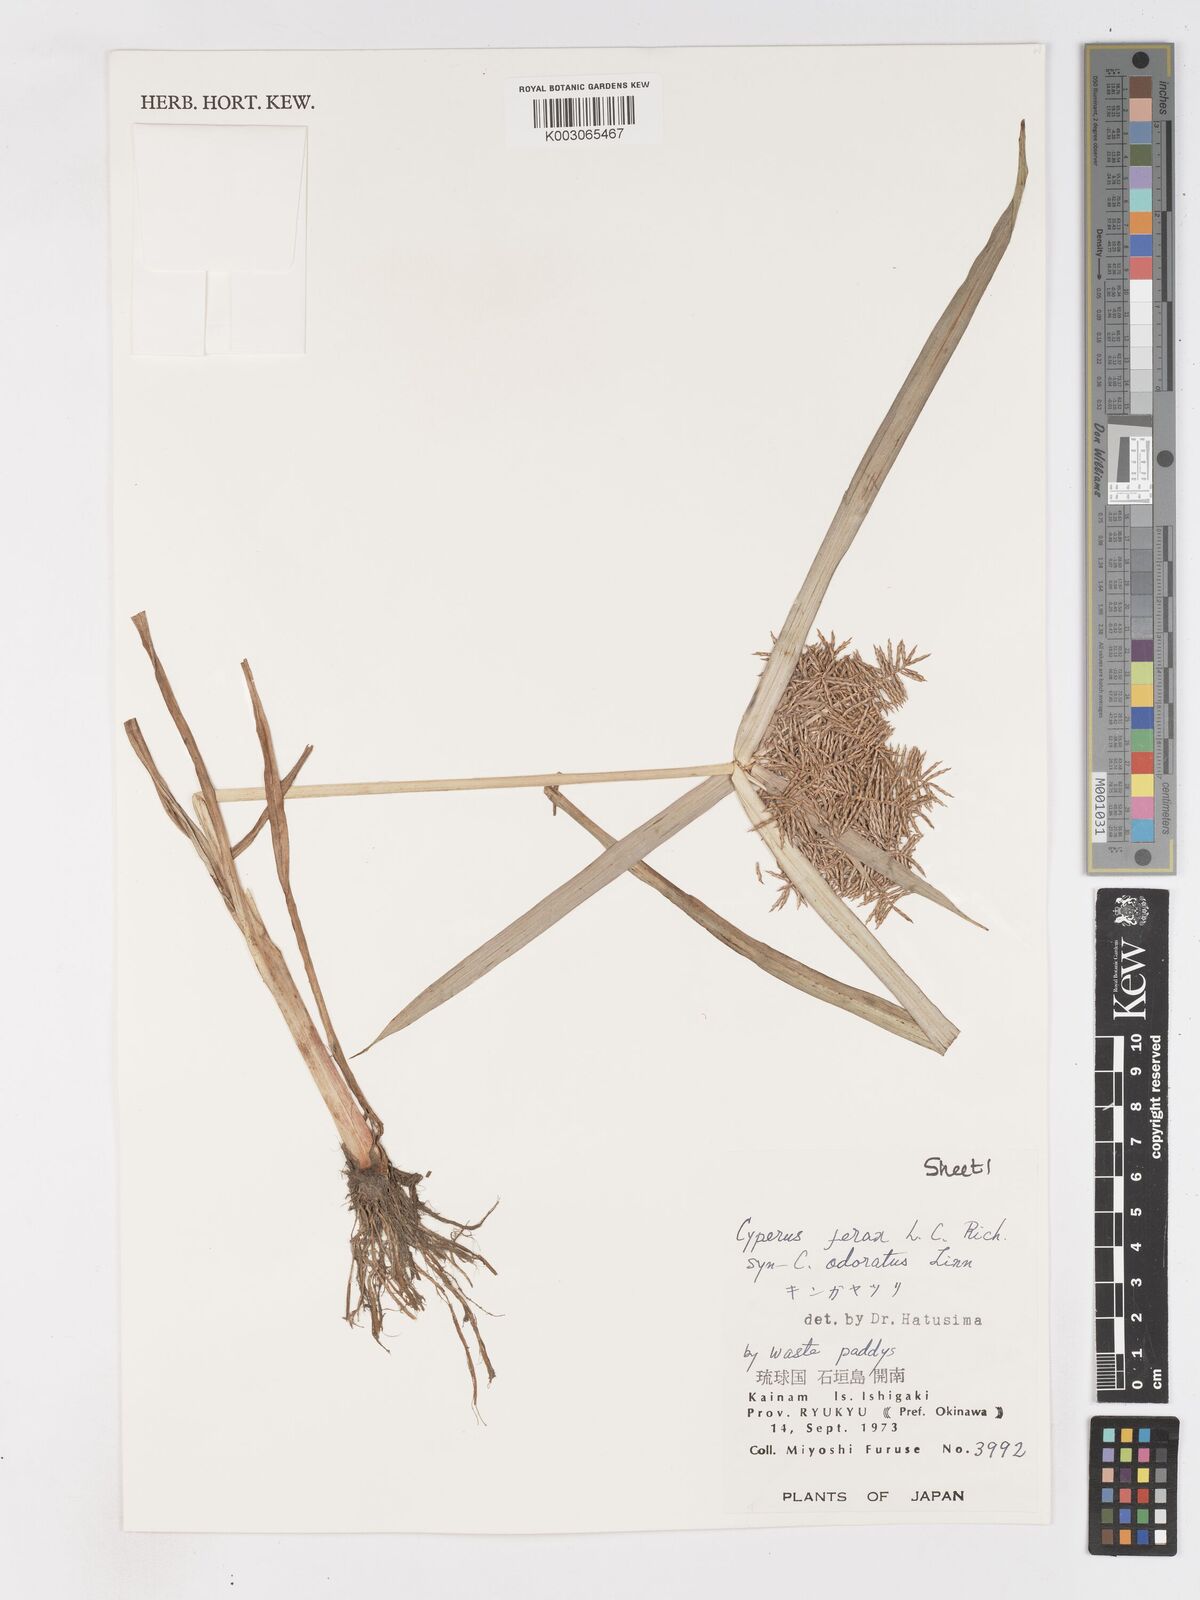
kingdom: Plantae
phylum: Tracheophyta
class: Liliopsida
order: Poales
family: Cyperaceae
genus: Cyperus
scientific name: Cyperus odoratus
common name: Fragrant flatsedge
